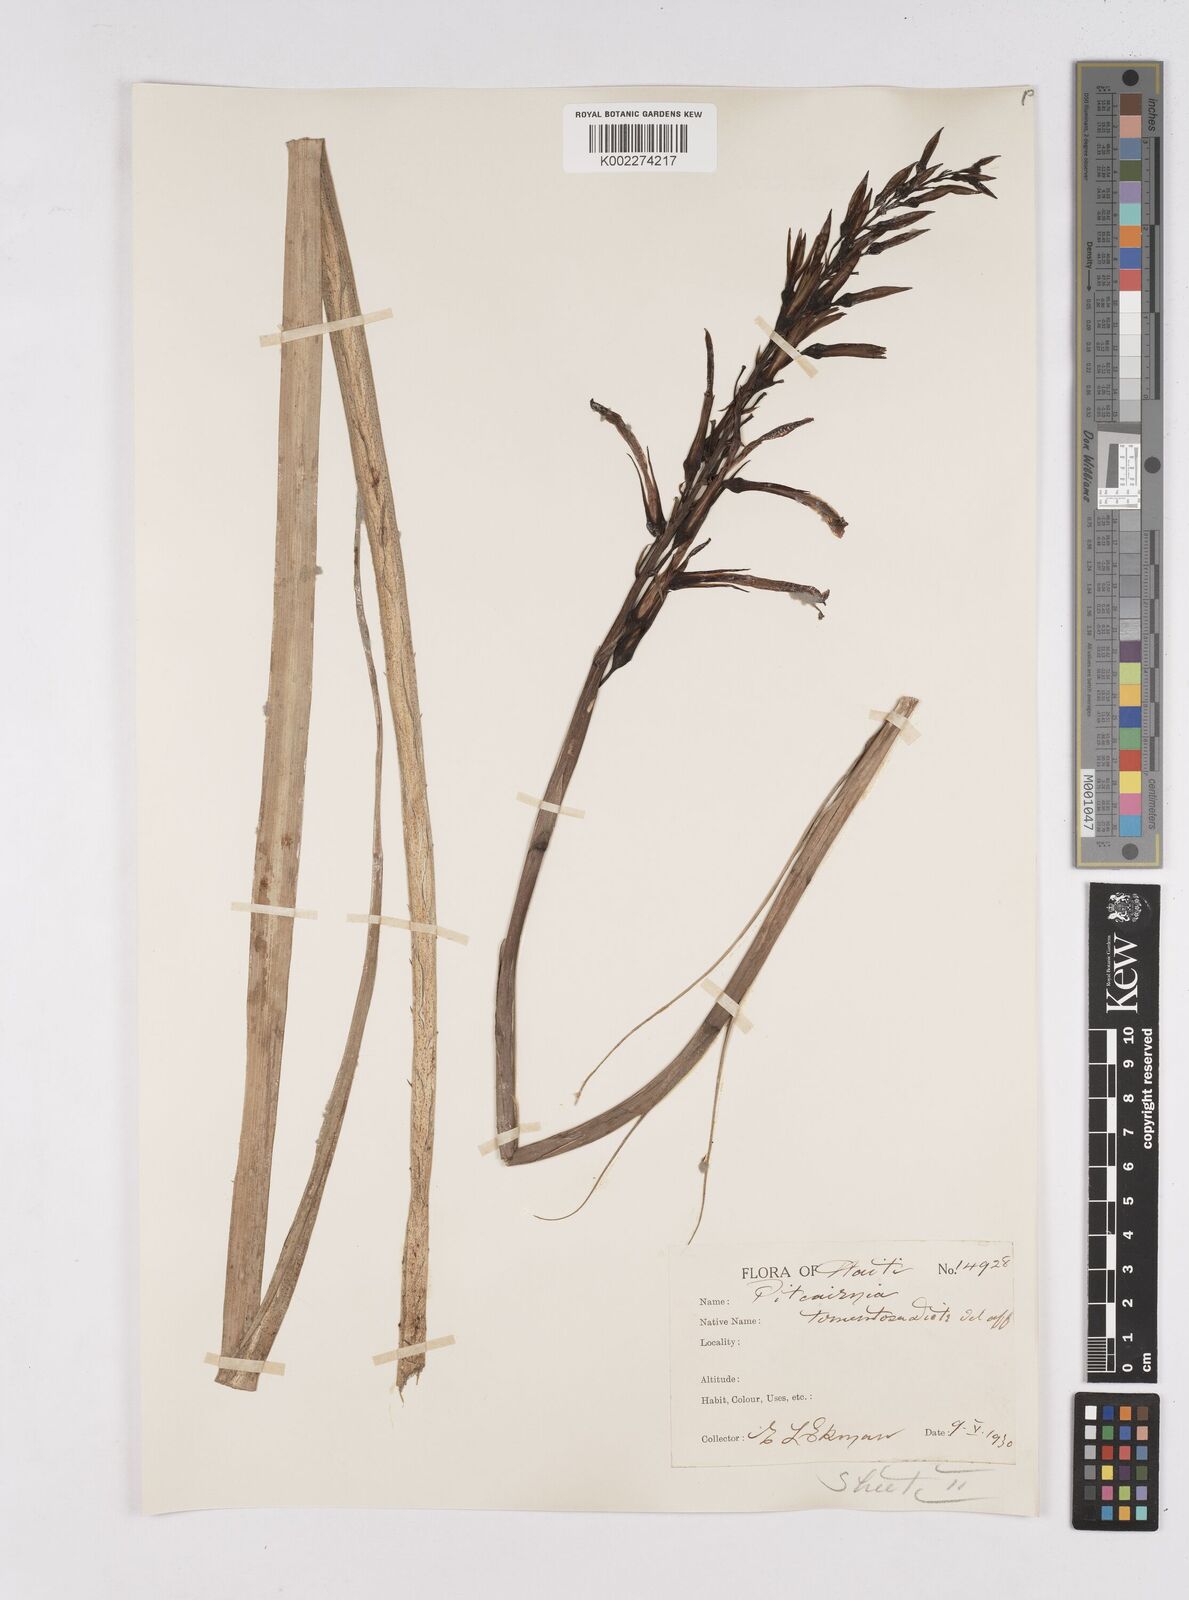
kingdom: Plantae
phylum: Tracheophyta
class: Liliopsida
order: Poales
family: Bromeliaceae
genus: Pitcairnia
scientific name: Pitcairnia fuertesii
